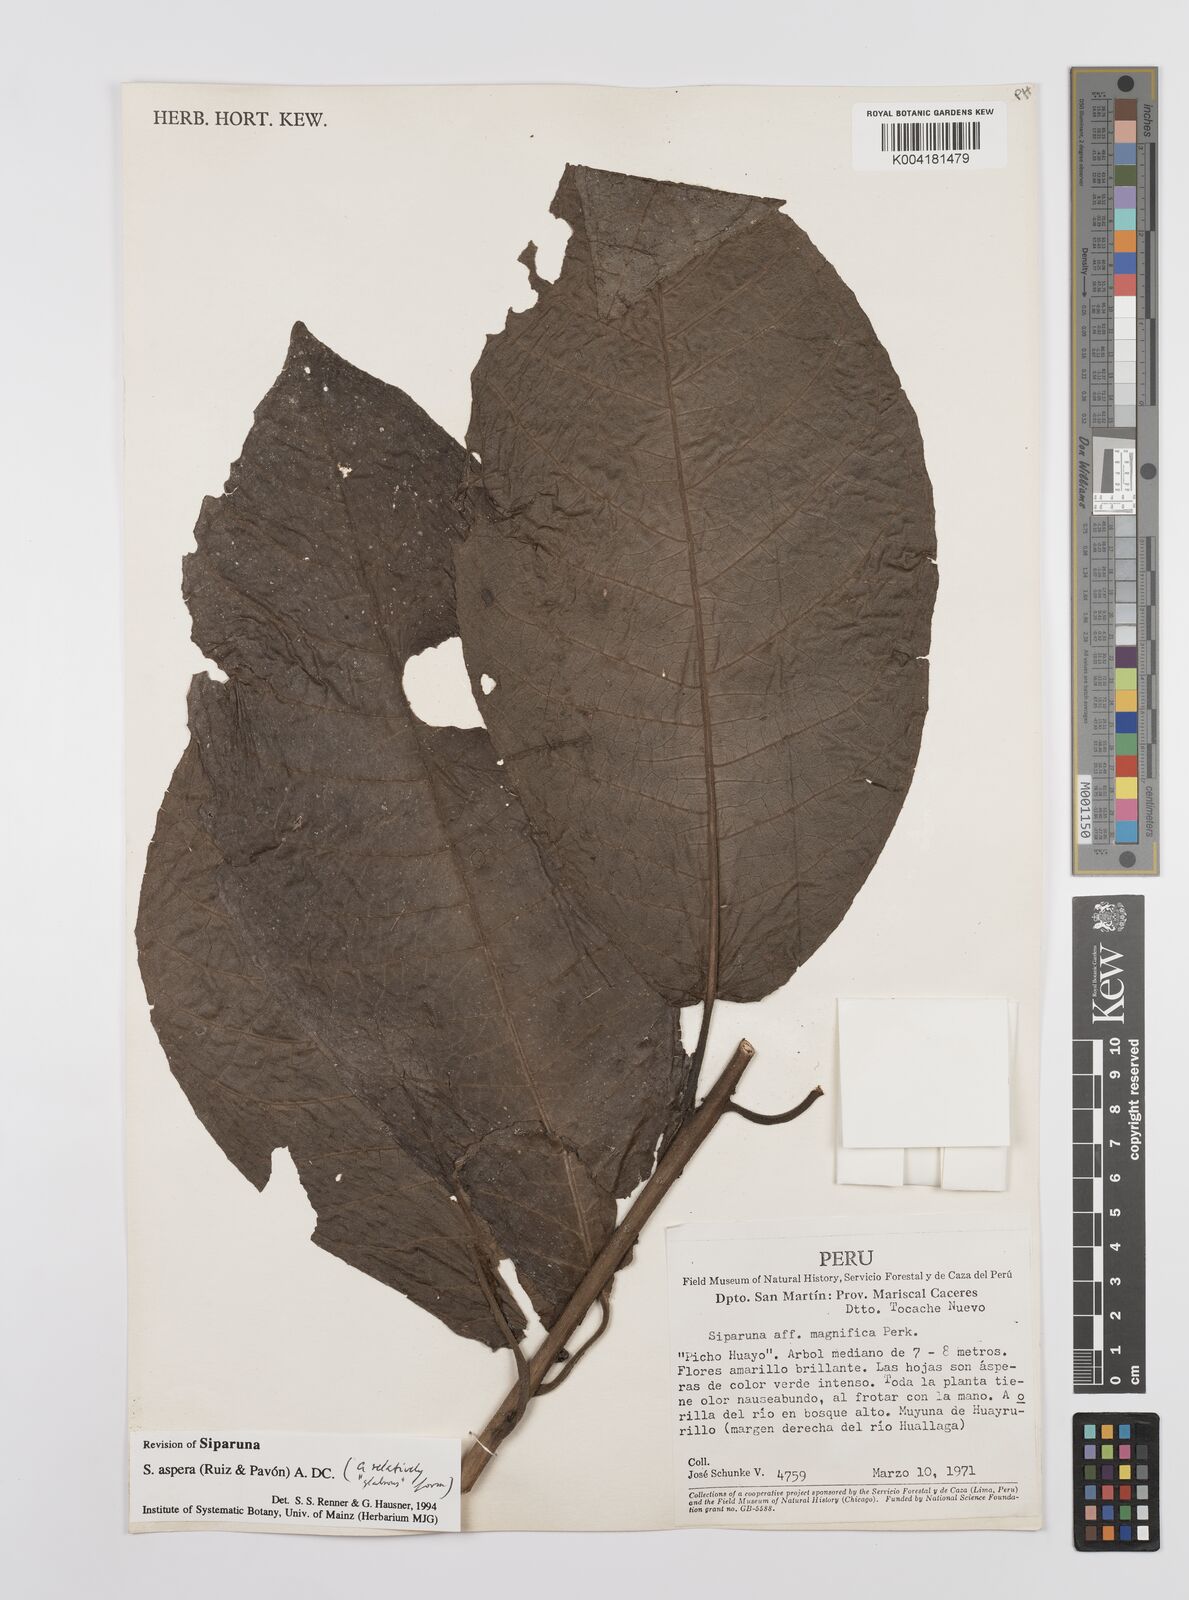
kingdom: Plantae
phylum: Tracheophyta
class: Magnoliopsida
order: Laurales
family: Siparunaceae
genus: Siparuna
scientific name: Siparuna aspera
